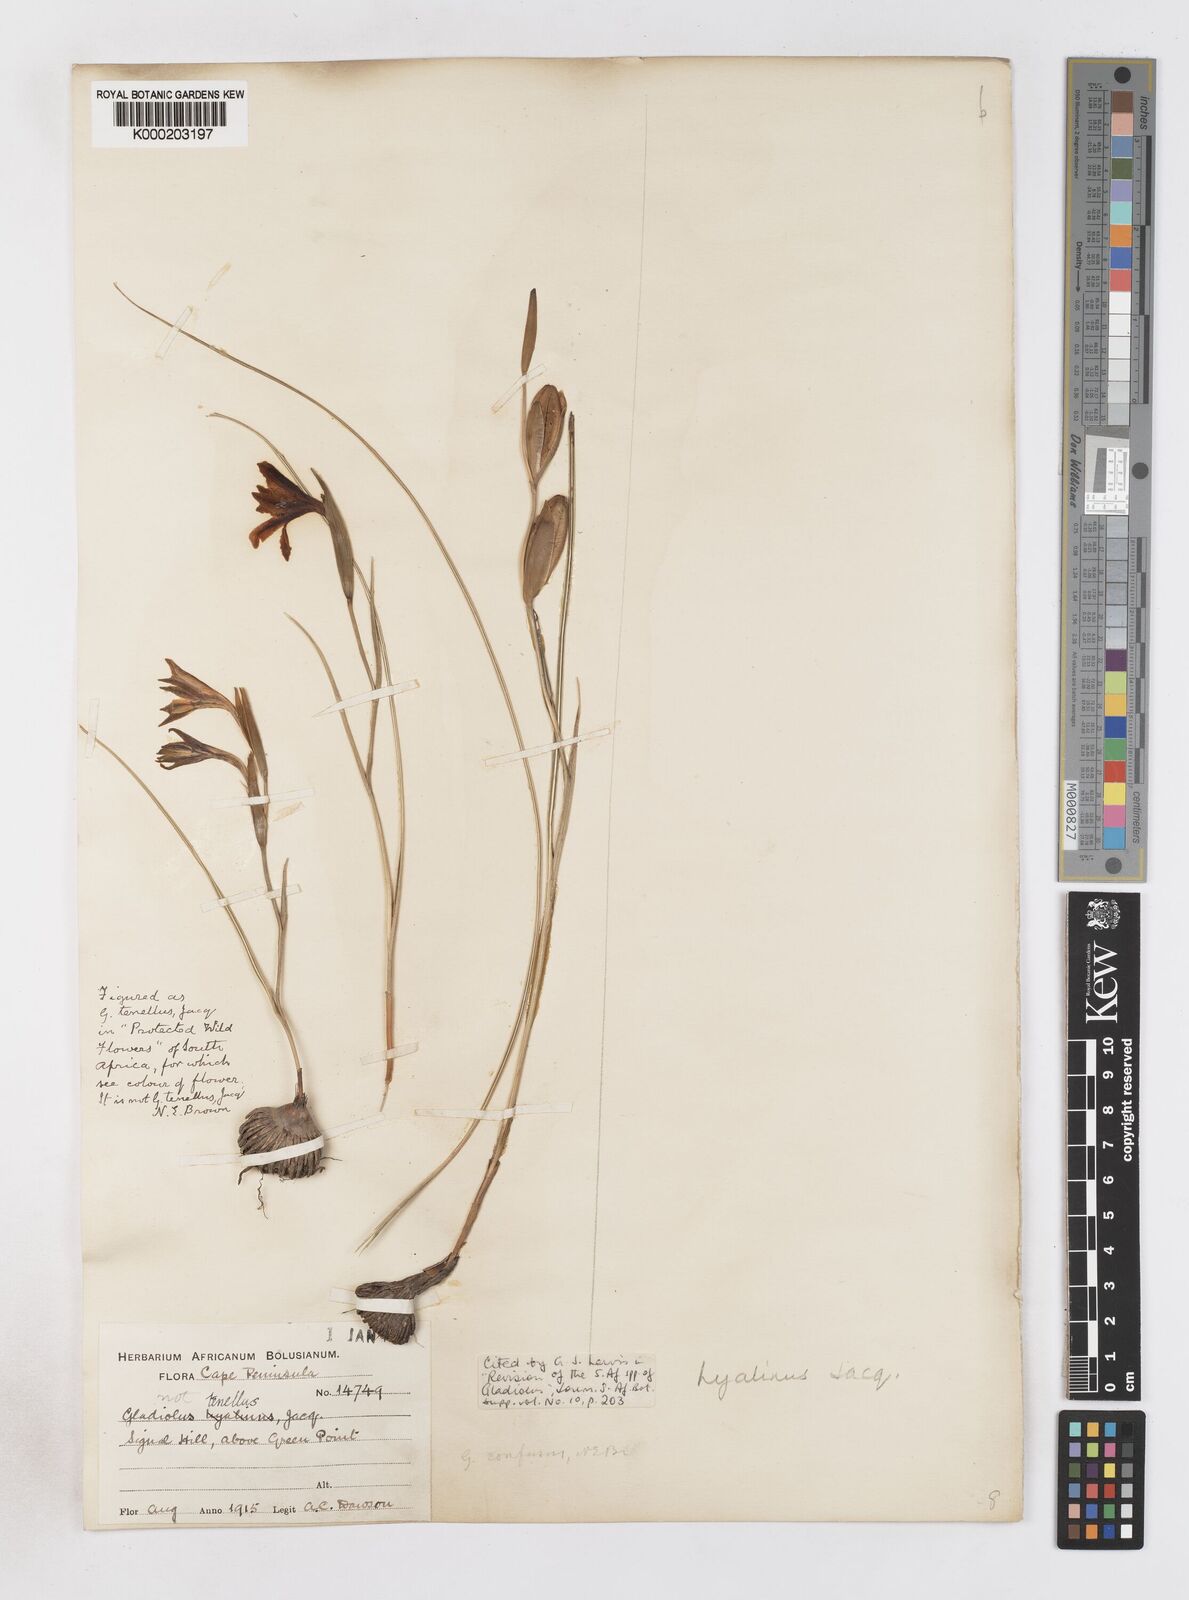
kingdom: Plantae
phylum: Tracheophyta
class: Liliopsida
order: Asparagales
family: Iridaceae
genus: Gladiolus
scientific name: Gladiolus hyalinus
